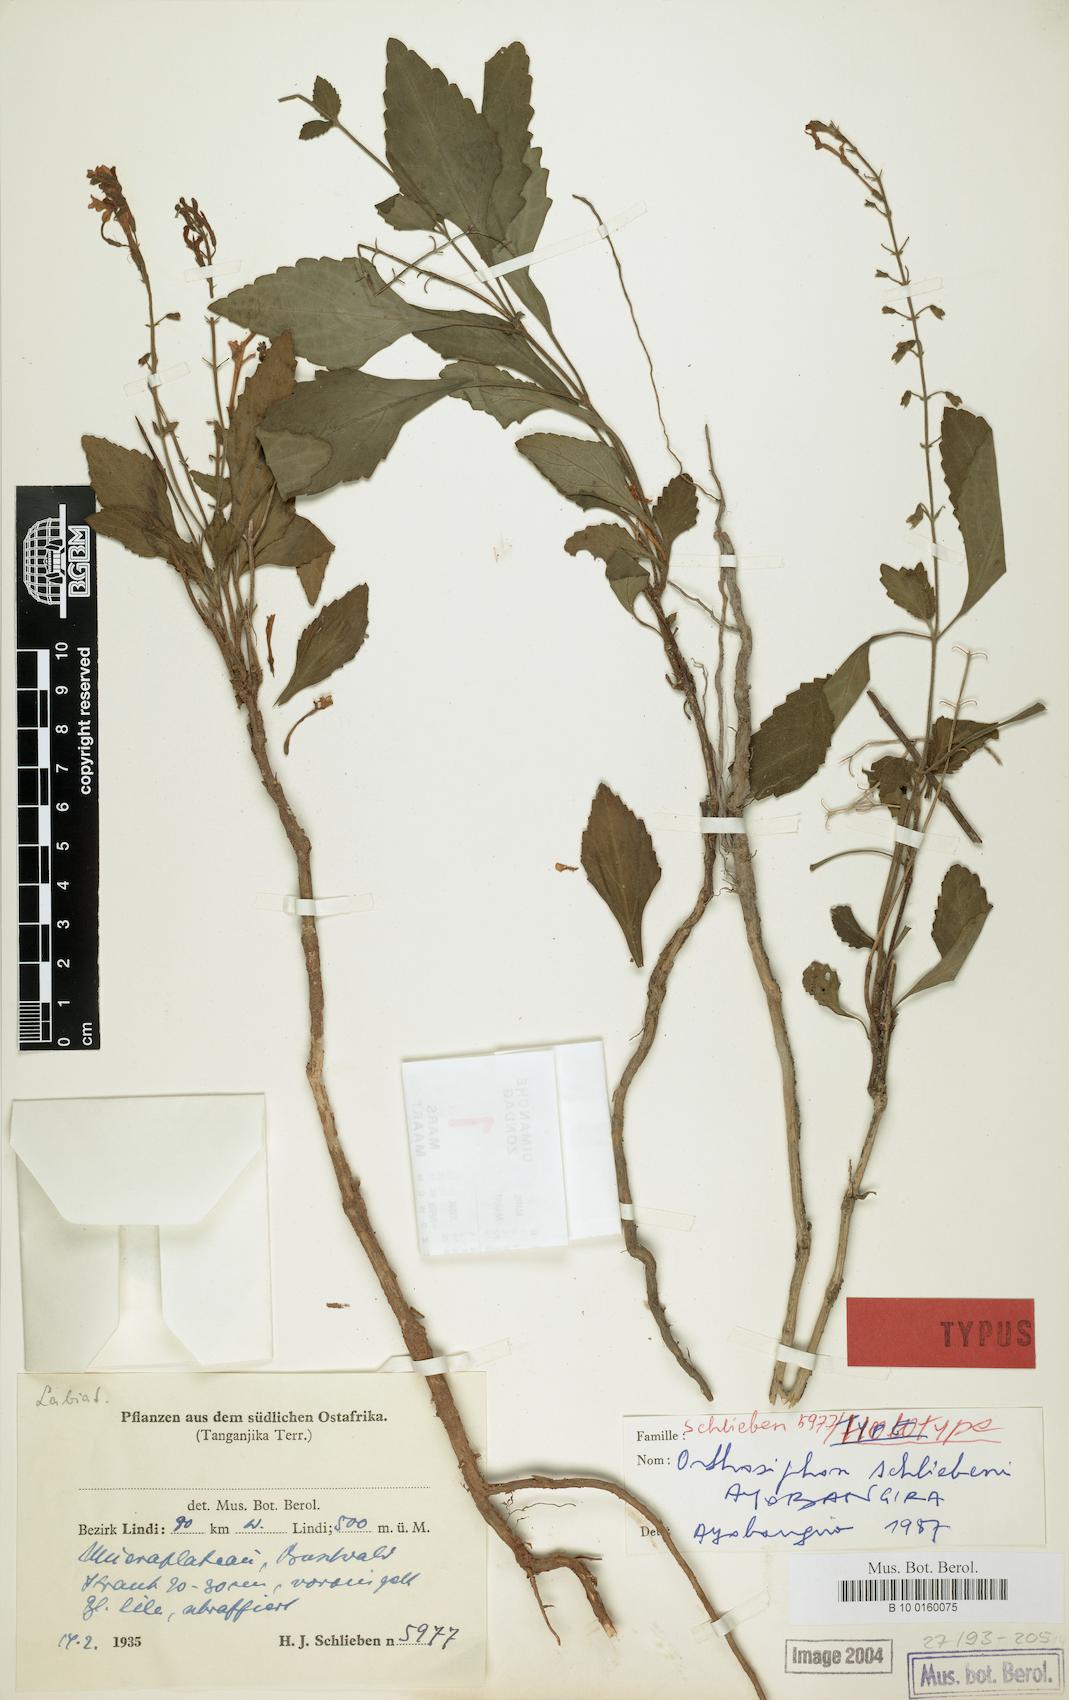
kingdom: Plantae
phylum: Tracheophyta
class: Magnoliopsida
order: Lamiales
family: Lamiaceae
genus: Orthosiphon
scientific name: Orthosiphon schliebenii
